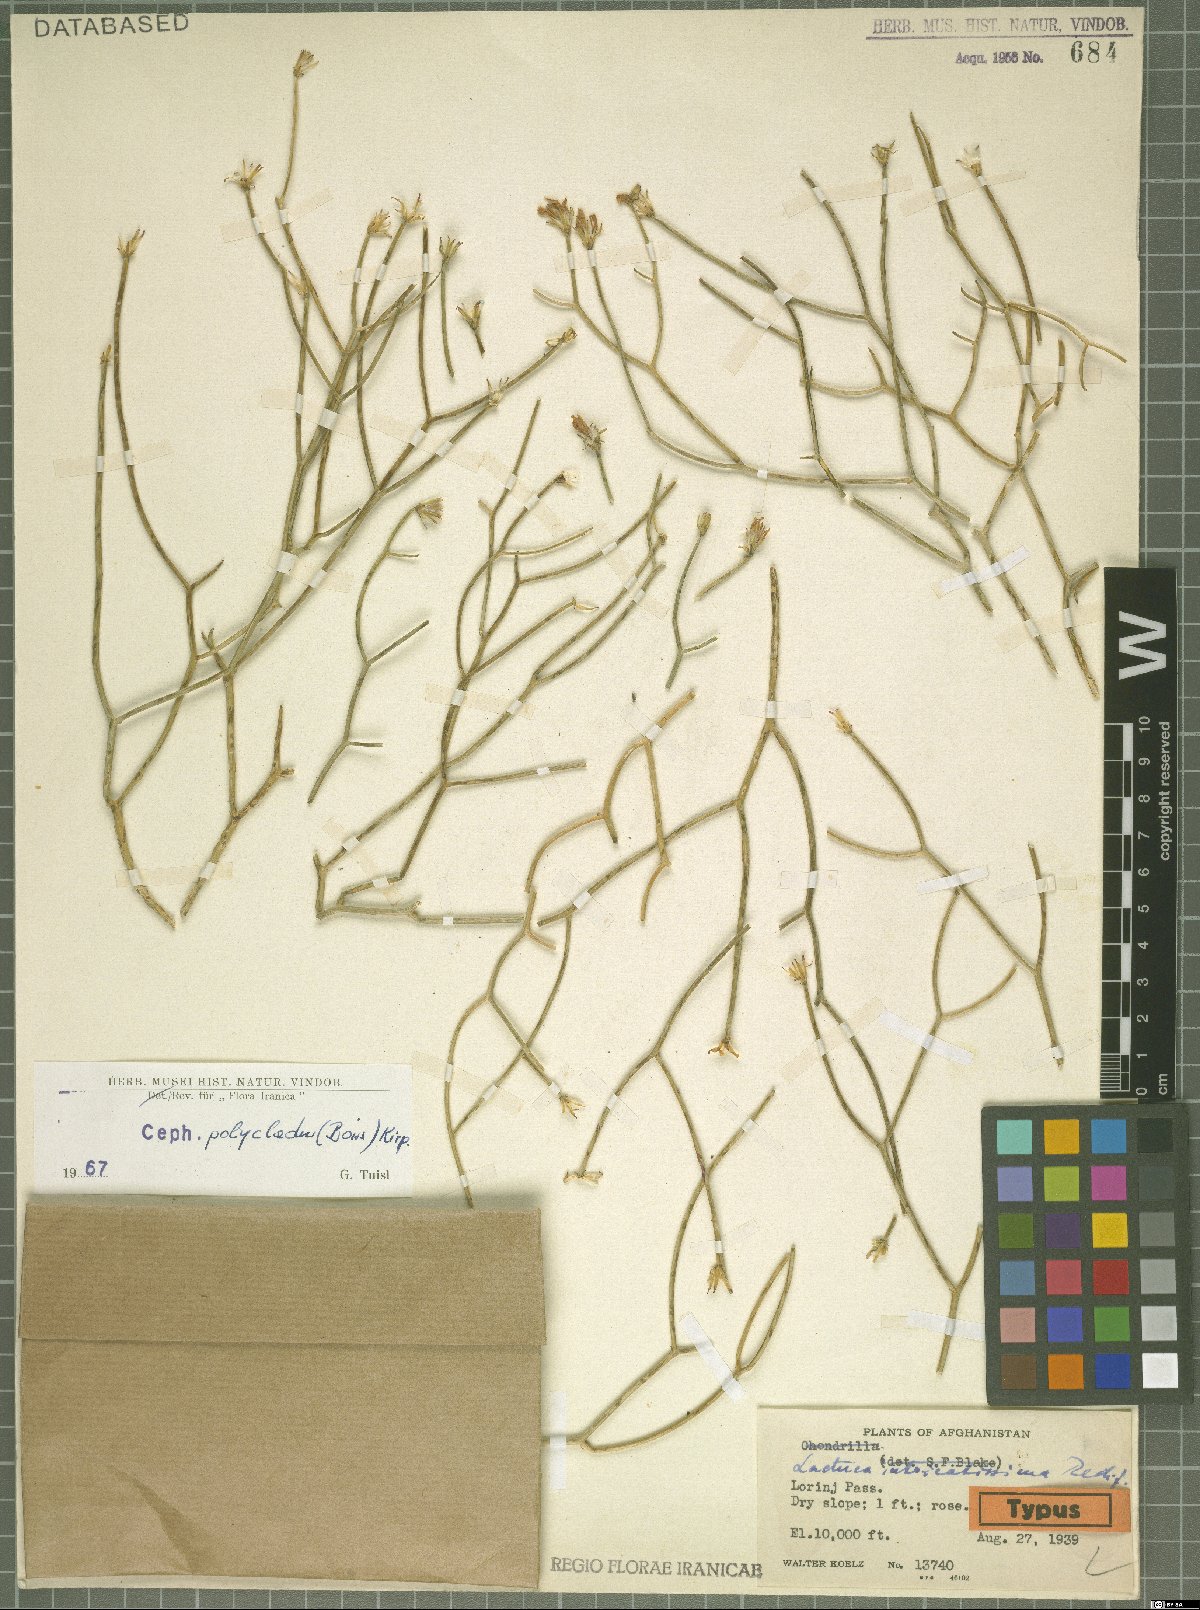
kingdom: Plantae
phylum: Tracheophyta
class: Magnoliopsida
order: Asterales
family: Asteraceae
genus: Melanoseris
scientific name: Melanoseris polyclada
